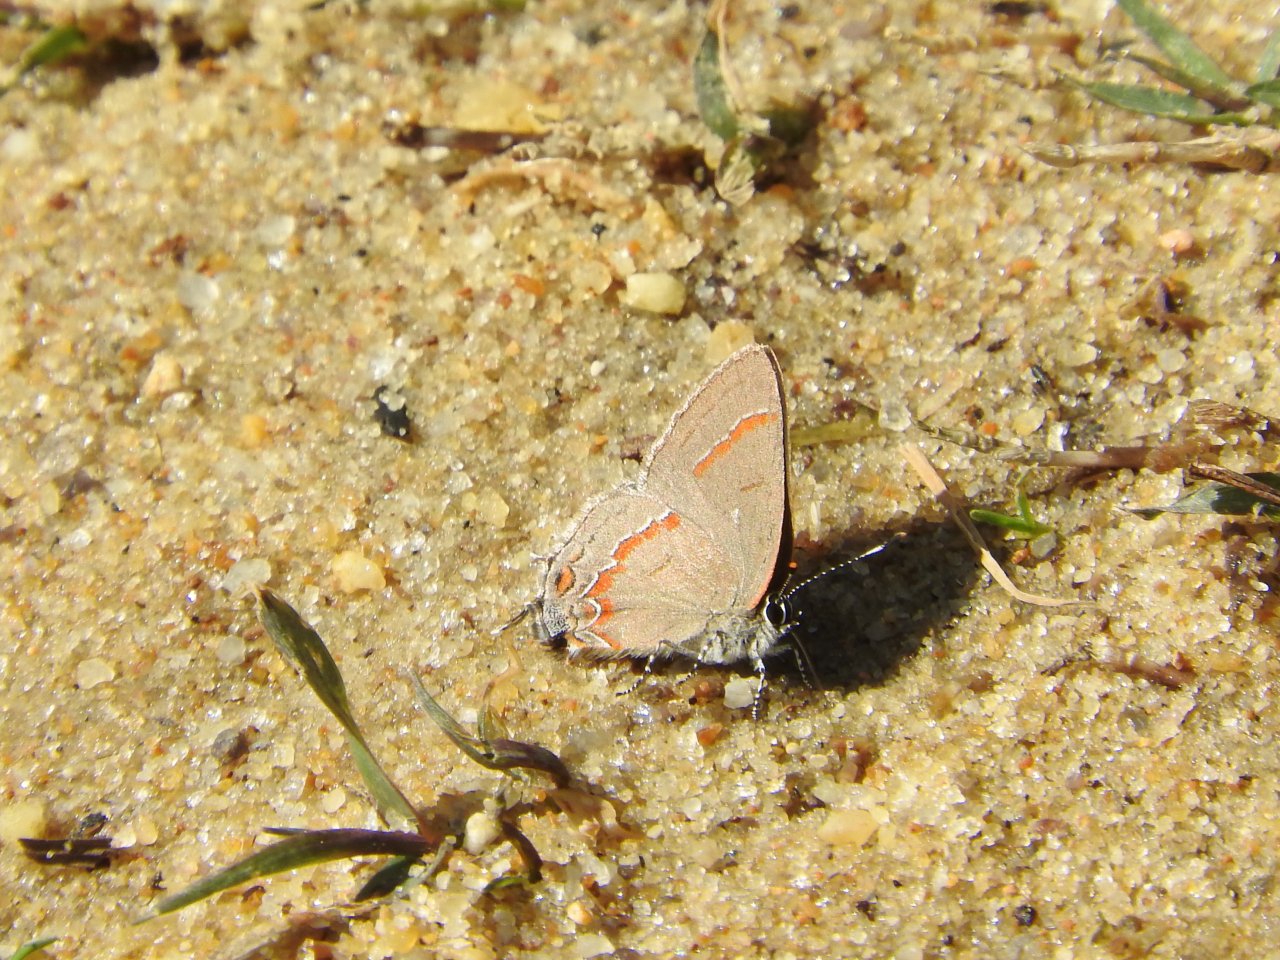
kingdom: Animalia
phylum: Arthropoda
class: Insecta
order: Lepidoptera
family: Lycaenidae
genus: Calycopis
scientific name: Calycopis cecrops
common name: Red-banded Hairstreak
